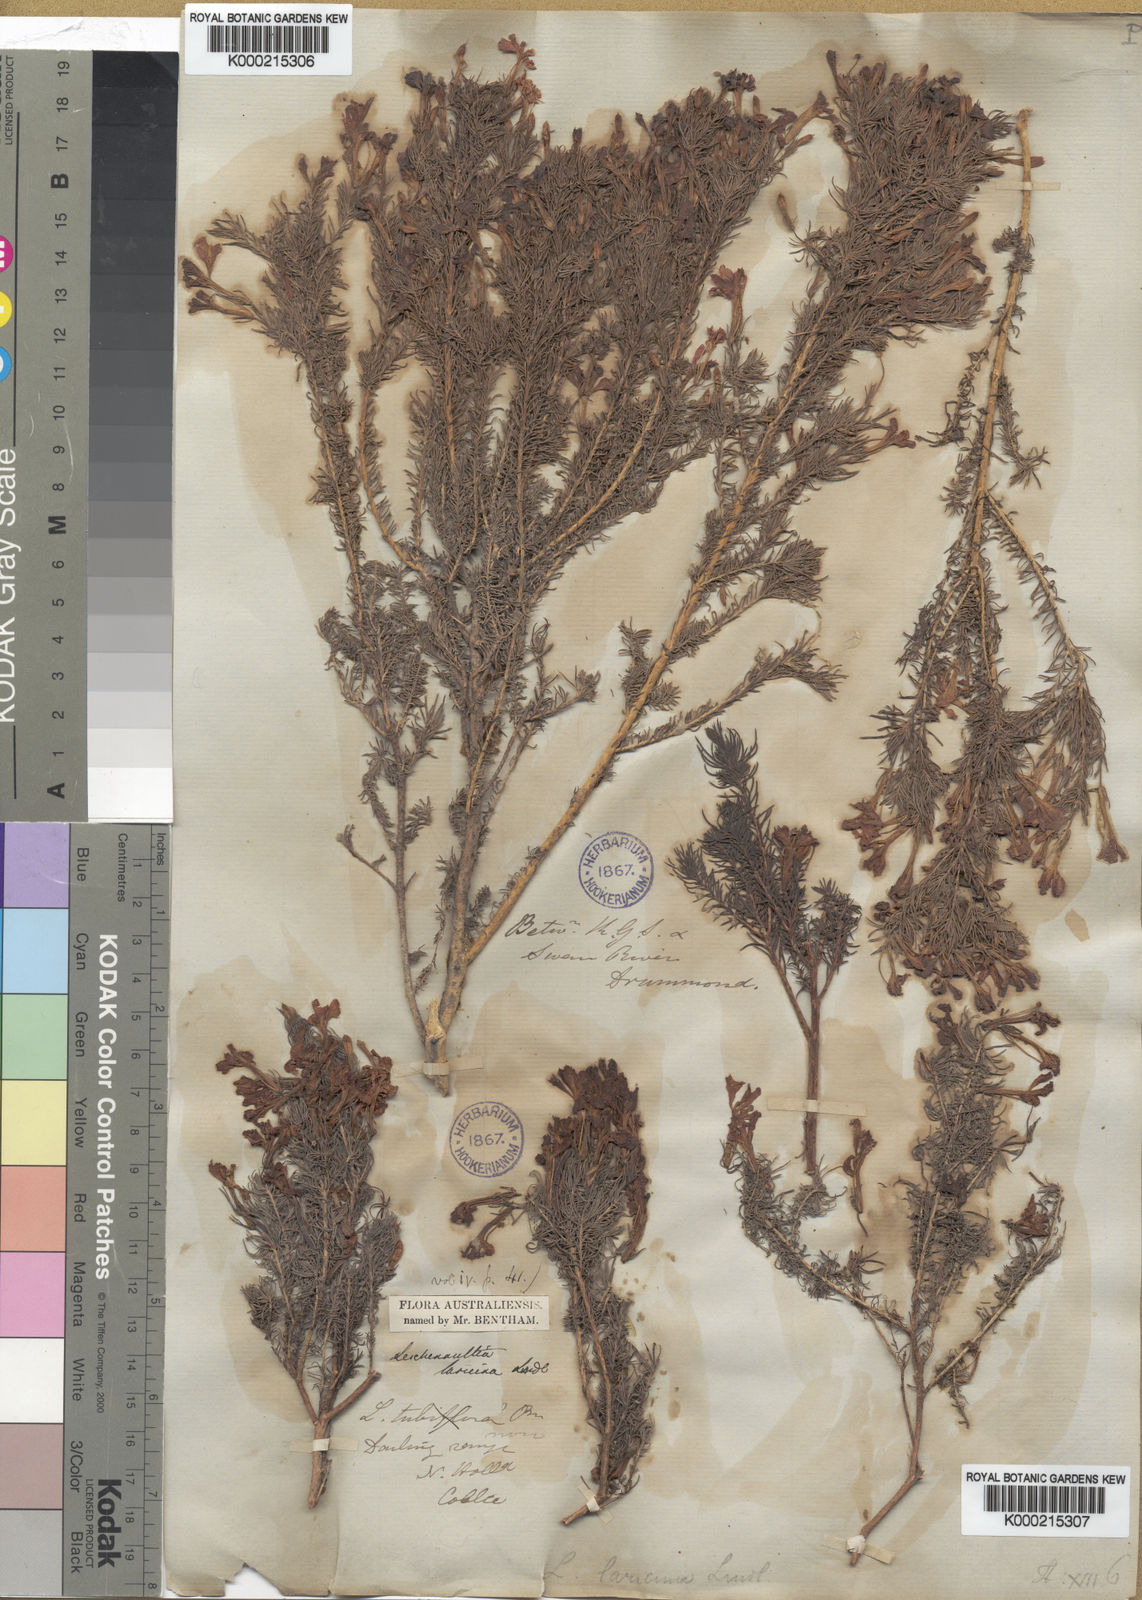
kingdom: Plantae
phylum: Tracheophyta
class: Magnoliopsida
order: Asterales
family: Goodeniaceae
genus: Leschenaultia
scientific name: Leschenaultia
